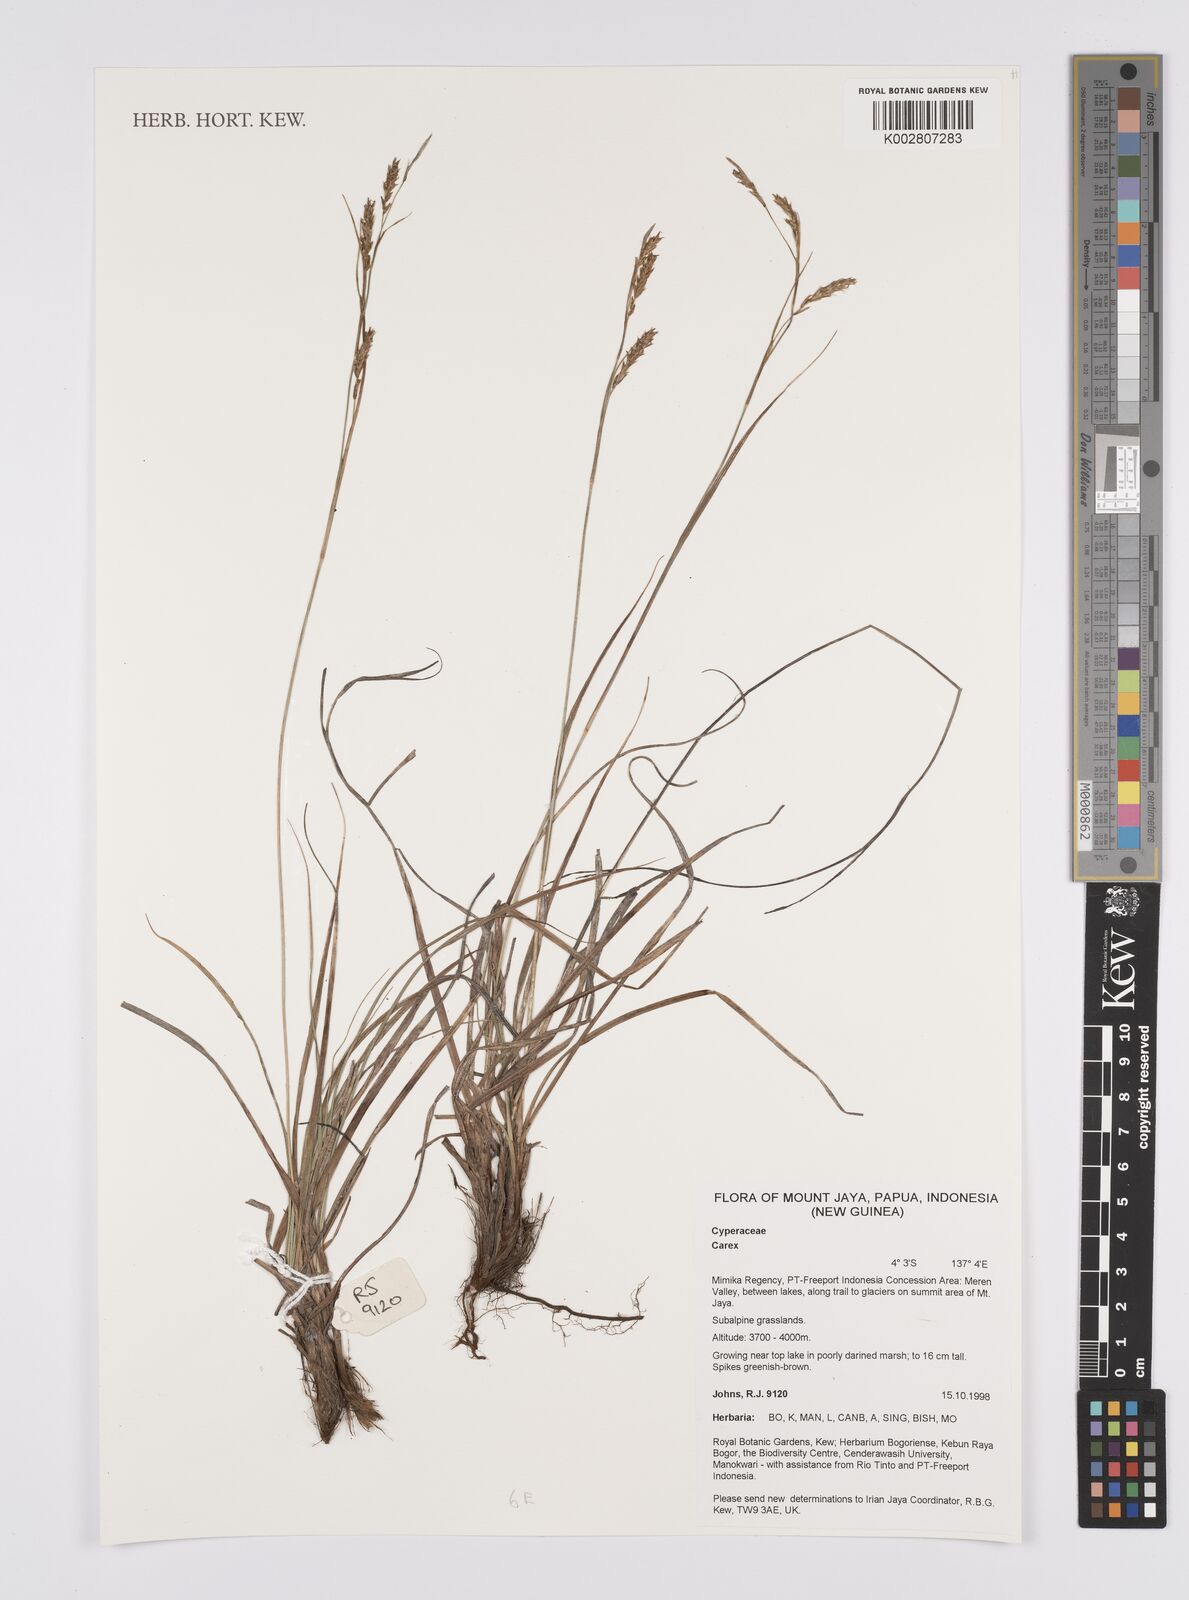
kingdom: Plantae
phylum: Tracheophyta
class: Liliopsida
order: Poales
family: Cyperaceae
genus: Carex
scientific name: Carex
